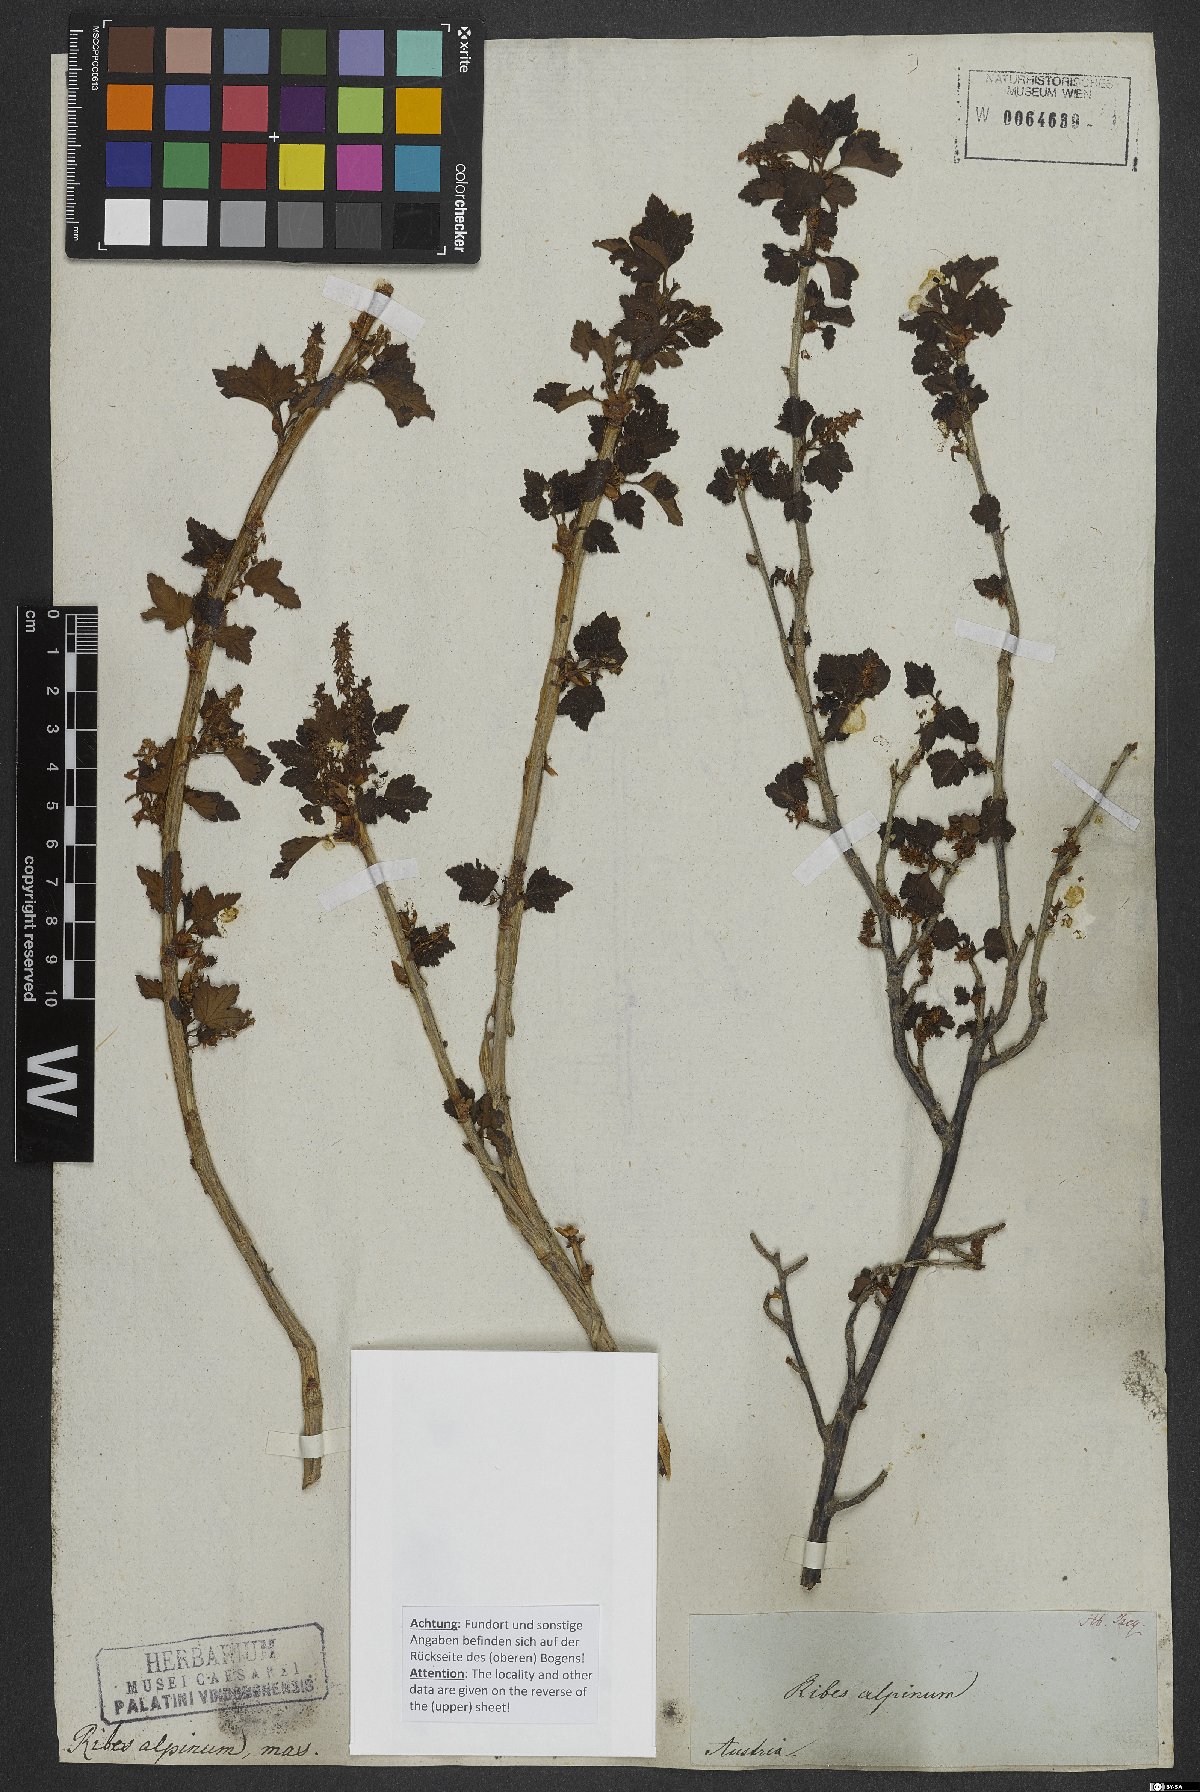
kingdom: Plantae
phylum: Tracheophyta
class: Magnoliopsida
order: Saxifragales
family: Grossulariaceae
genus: Ribes
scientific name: Ribes alpinum
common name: Alpine currant
